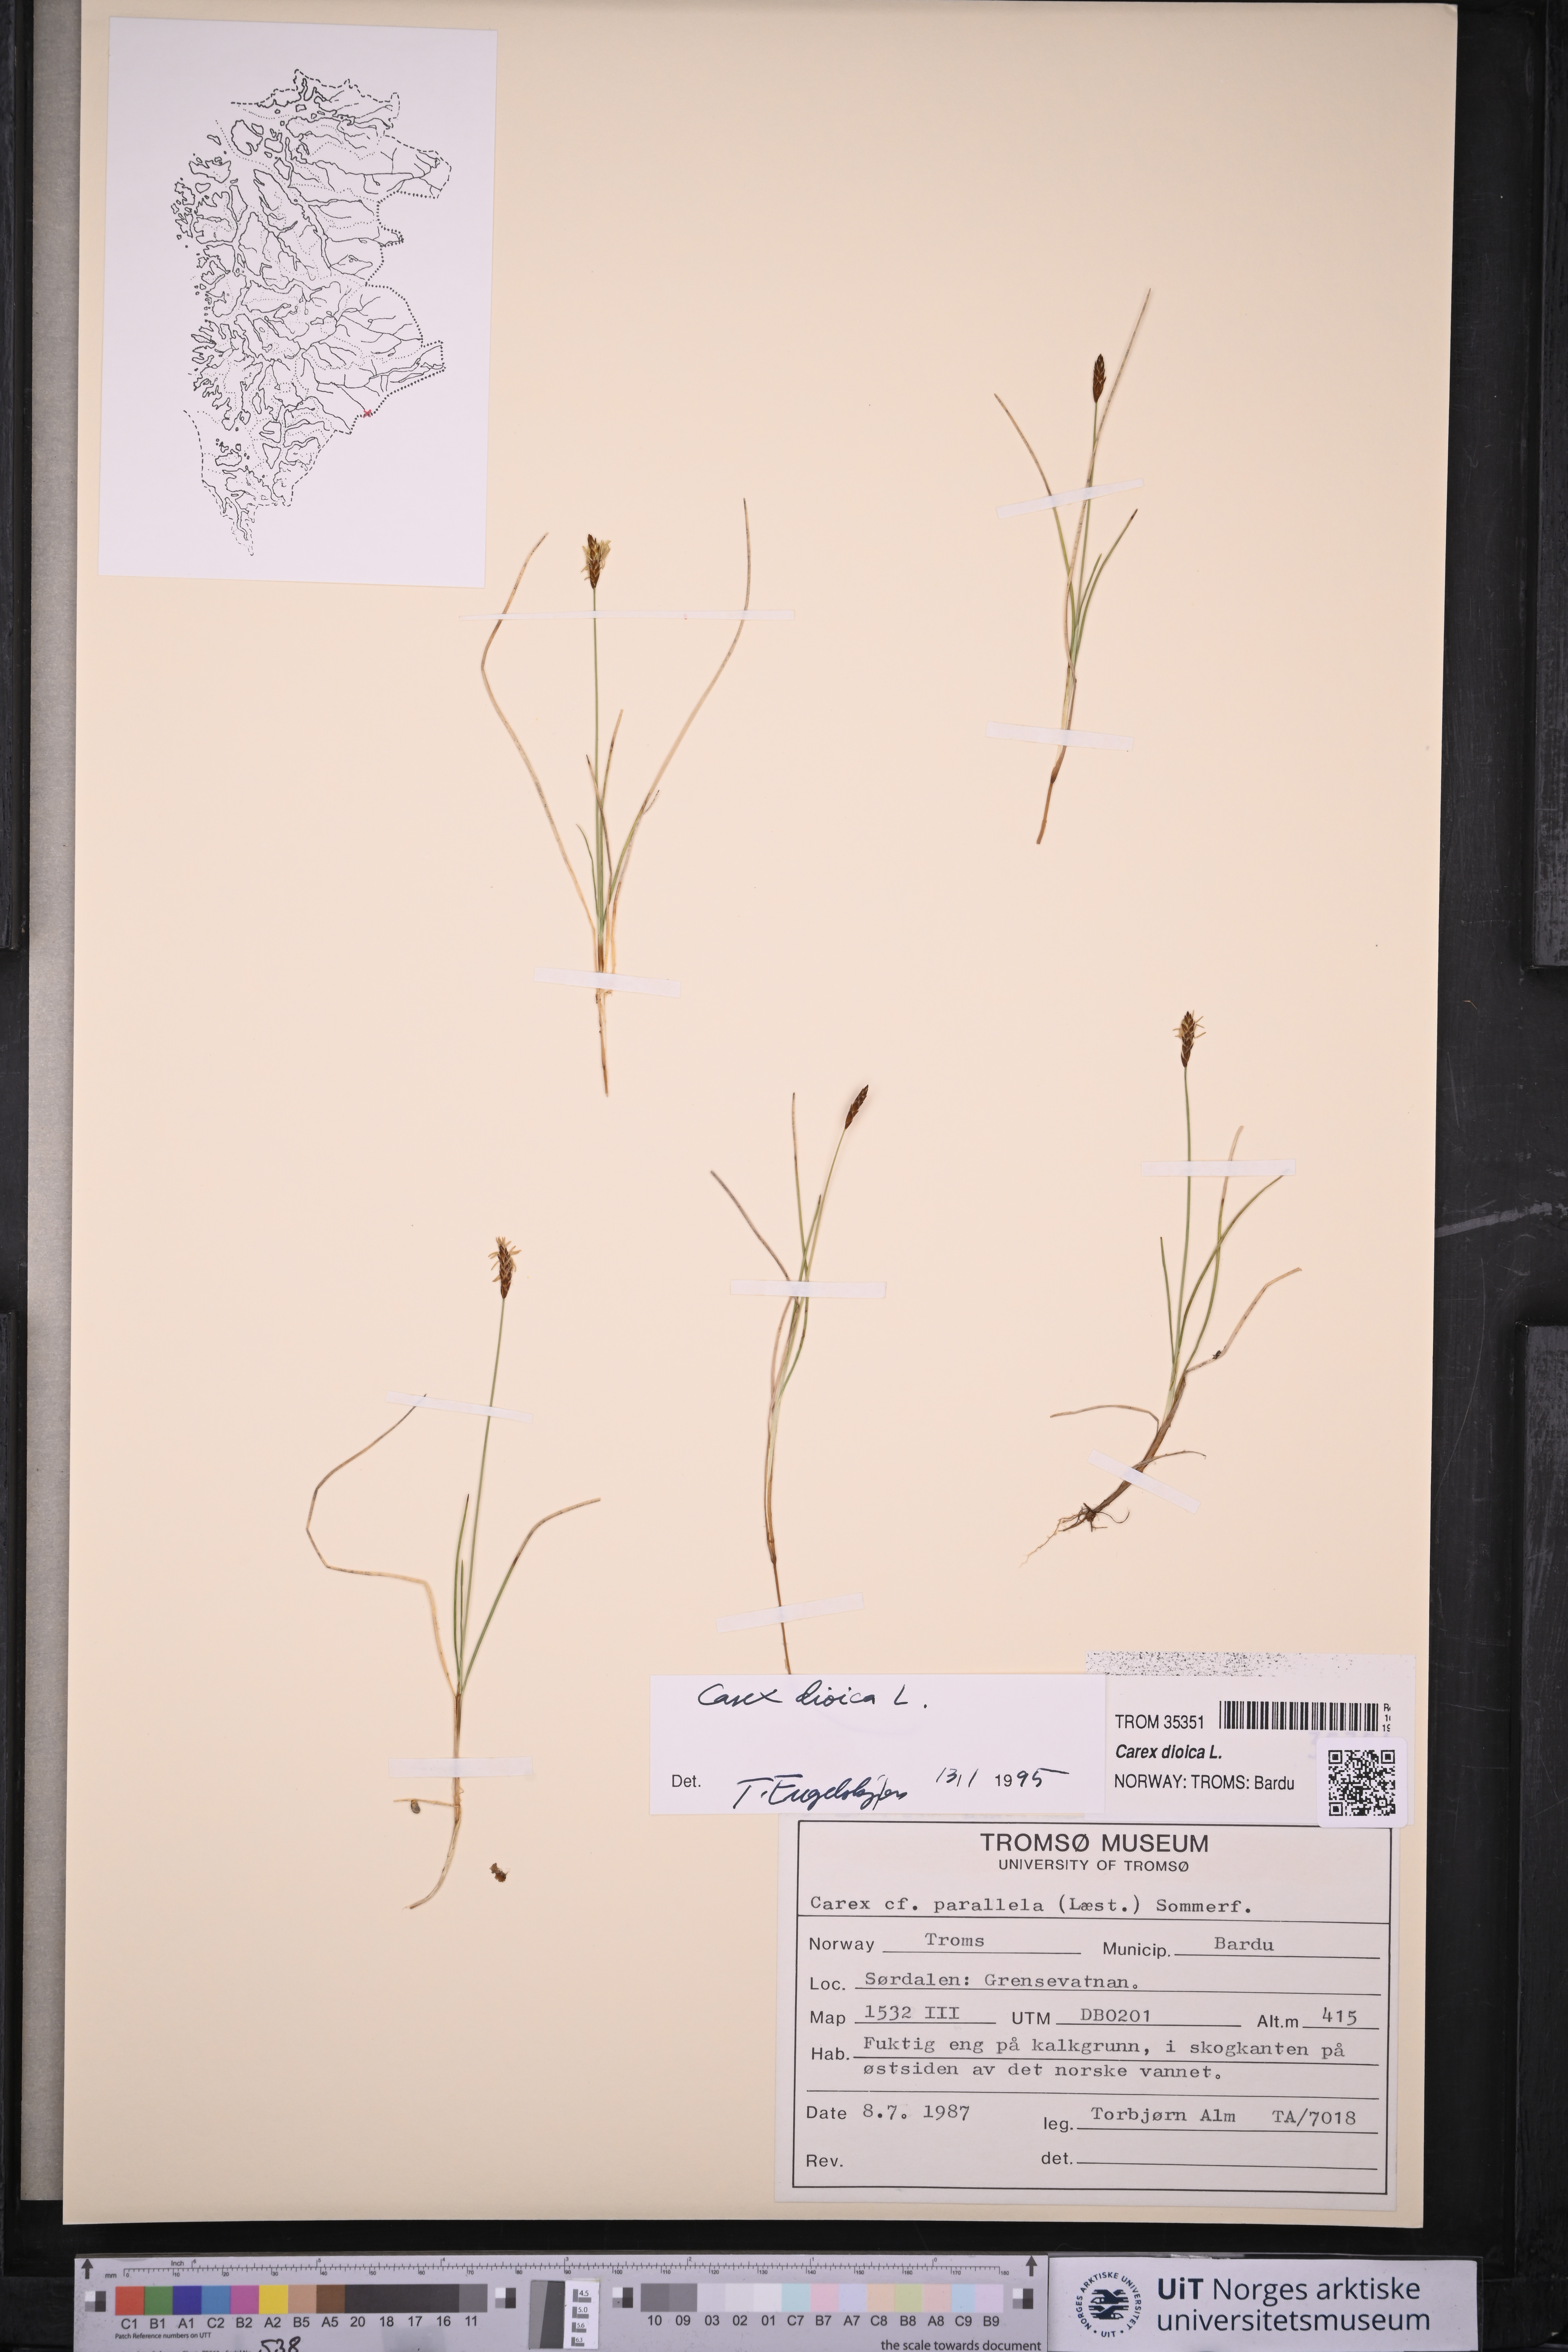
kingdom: Plantae
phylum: Tracheophyta
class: Liliopsida
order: Poales
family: Cyperaceae
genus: Carex
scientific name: Carex dioica
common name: Dioecious sedge
